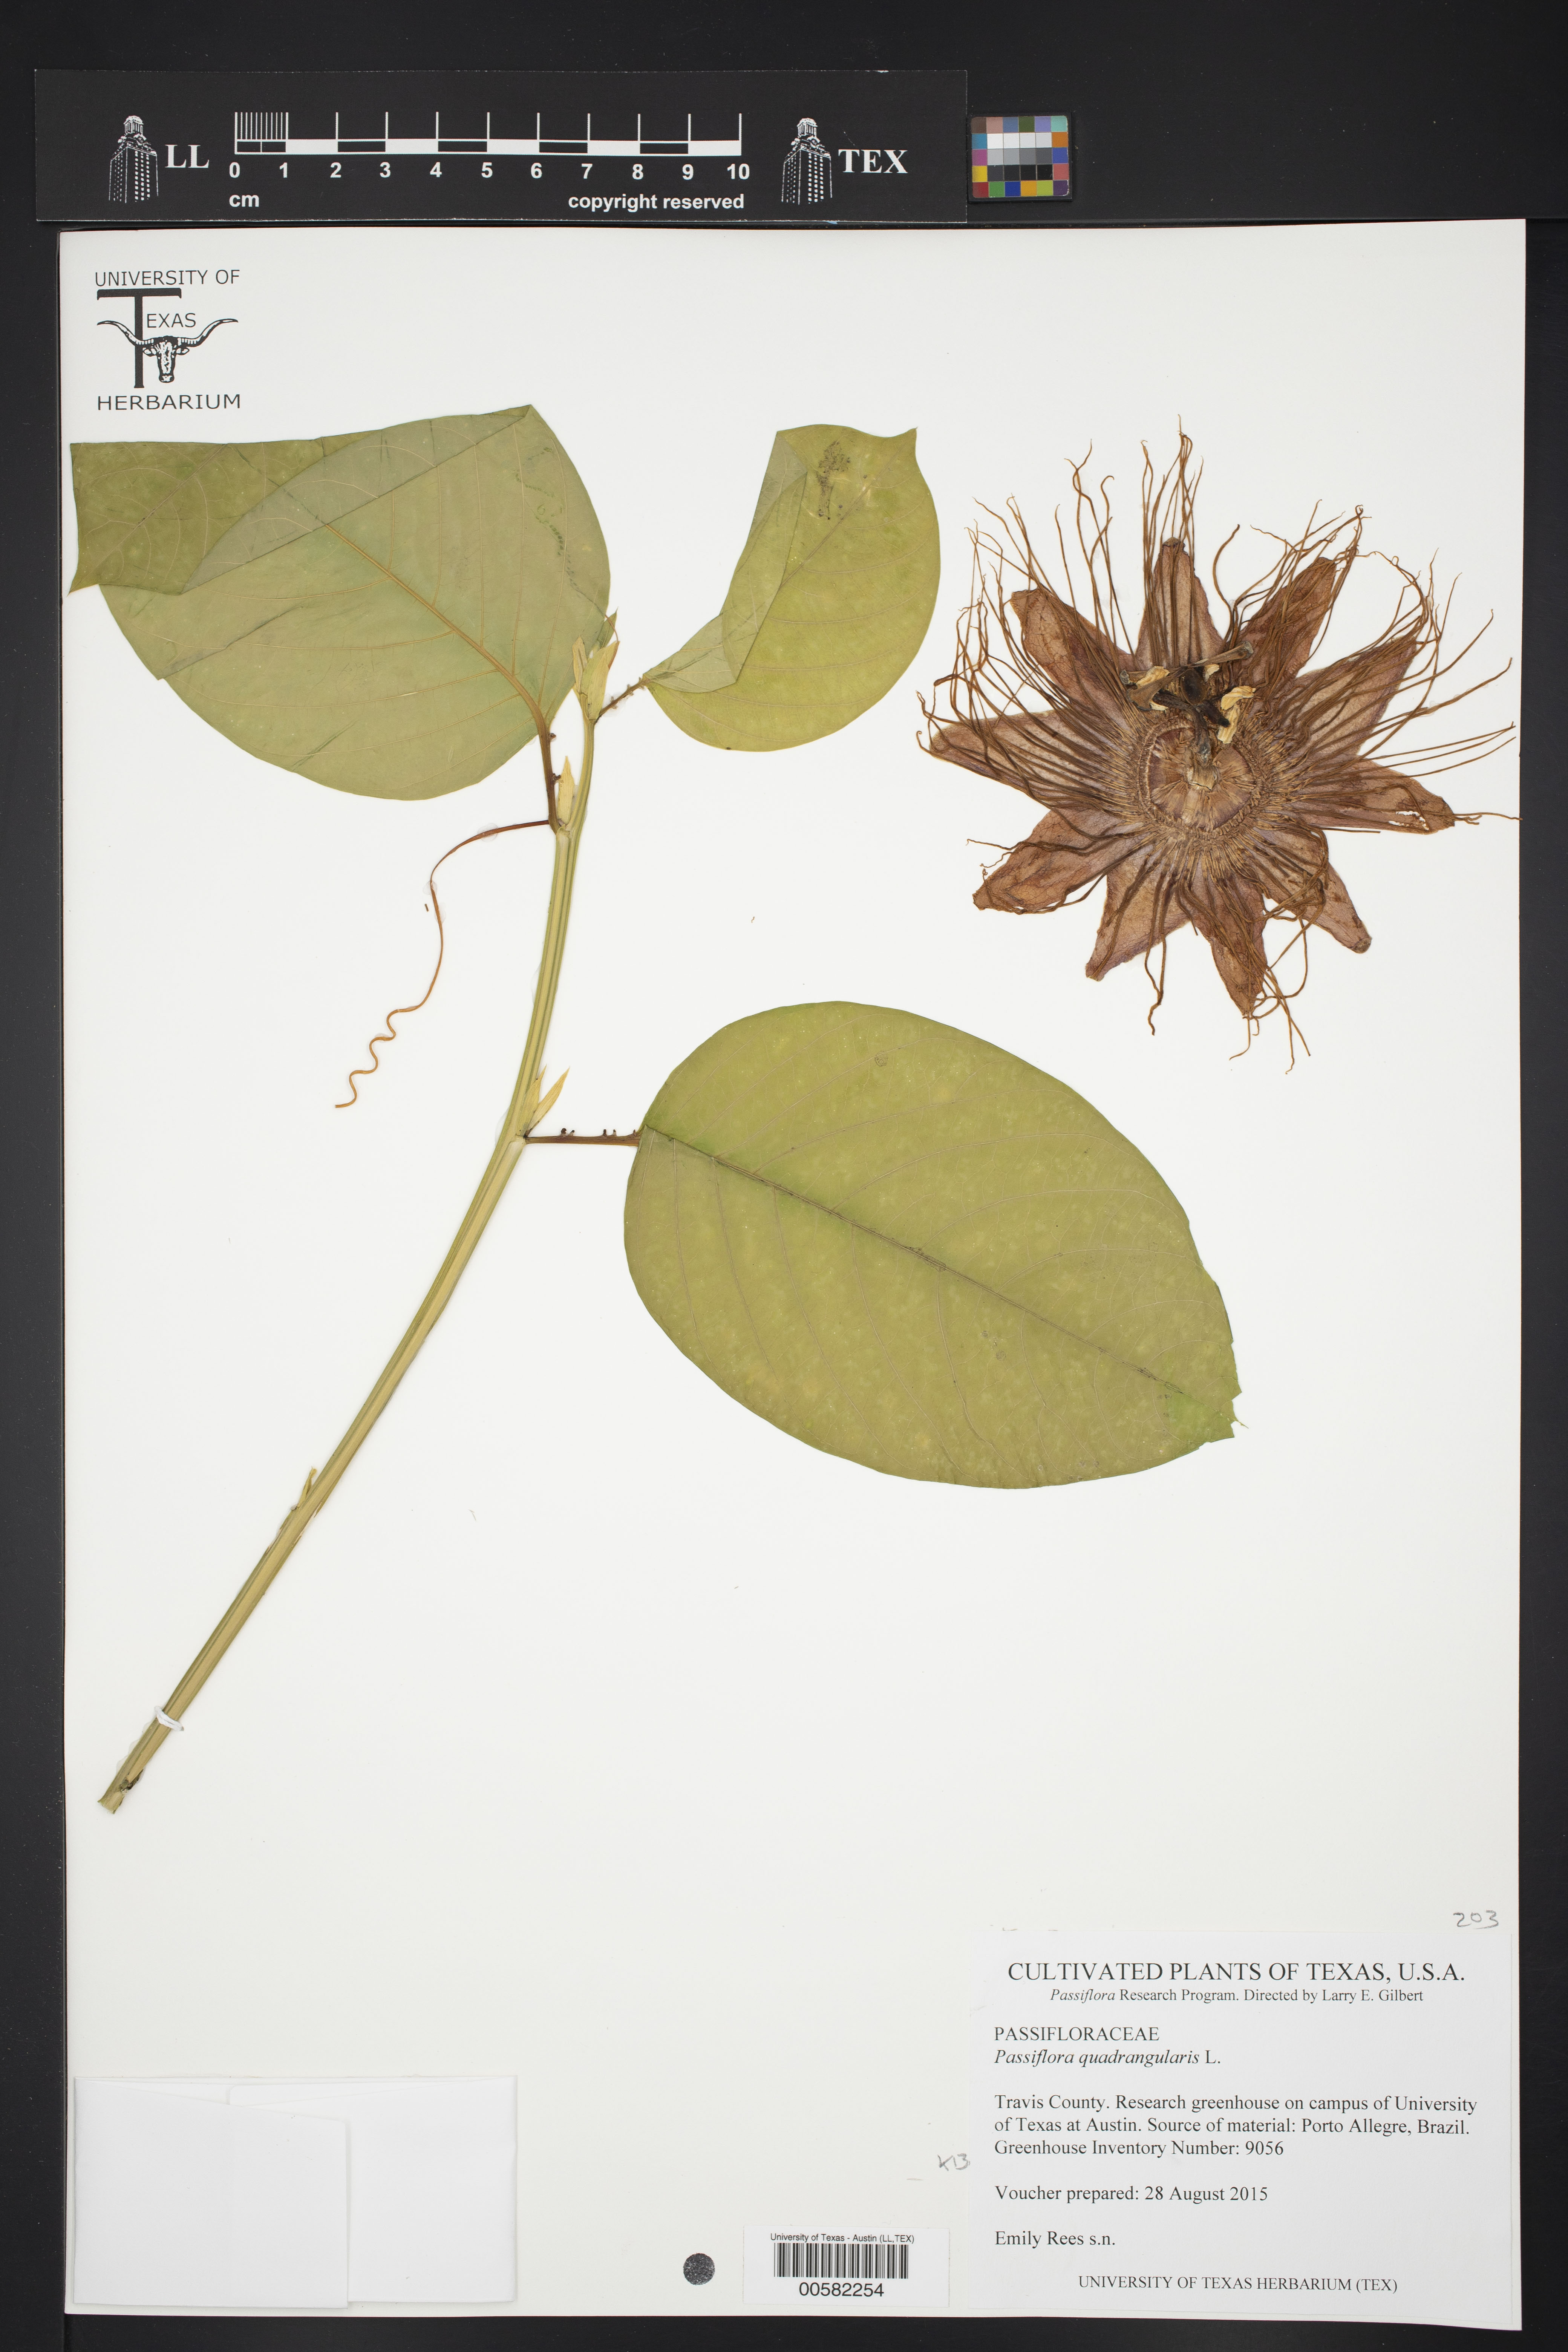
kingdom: Plantae
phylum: Tracheophyta
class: Magnoliopsida
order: Malpighiales
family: Passifloraceae
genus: Passiflora
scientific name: Passiflora quadrangularis
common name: Giant granadilla
